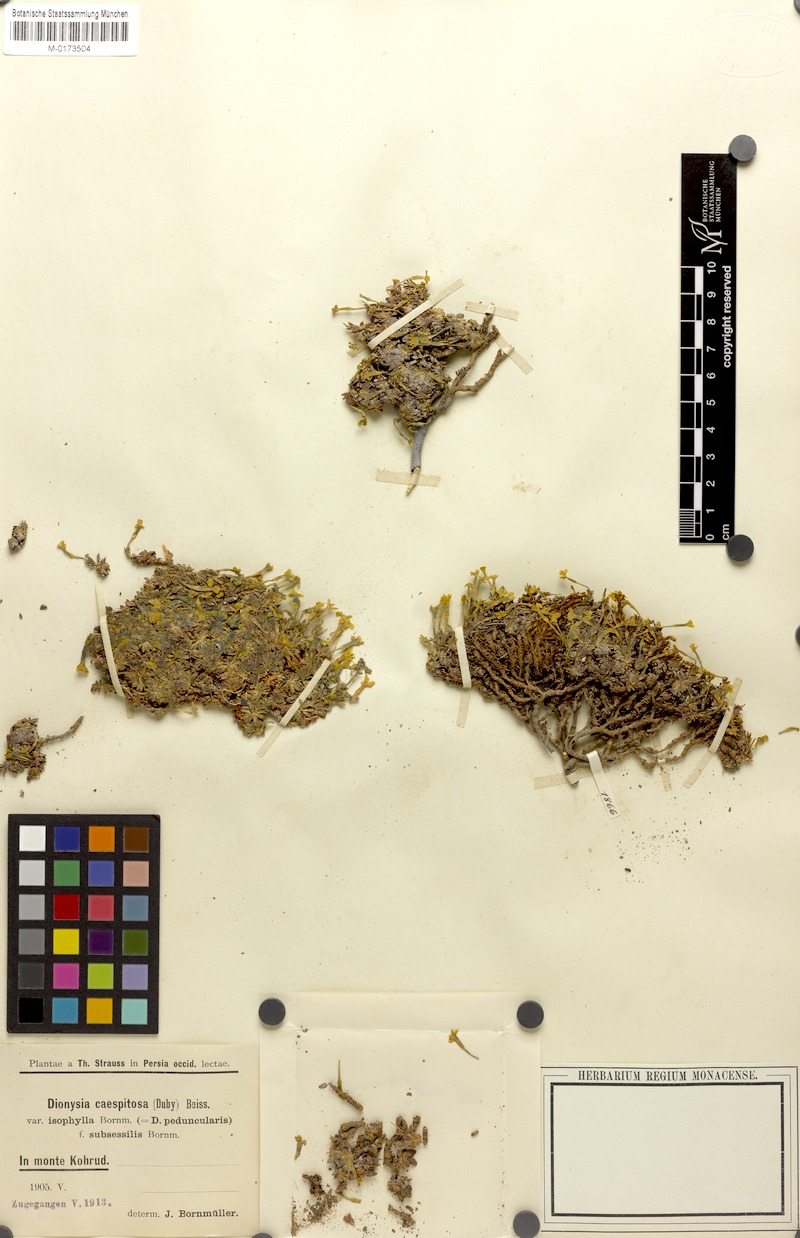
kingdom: Plantae
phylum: Tracheophyta
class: Magnoliopsida
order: Ericales
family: Primulaceae
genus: Dionysia
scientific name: Dionysia caespitosa
